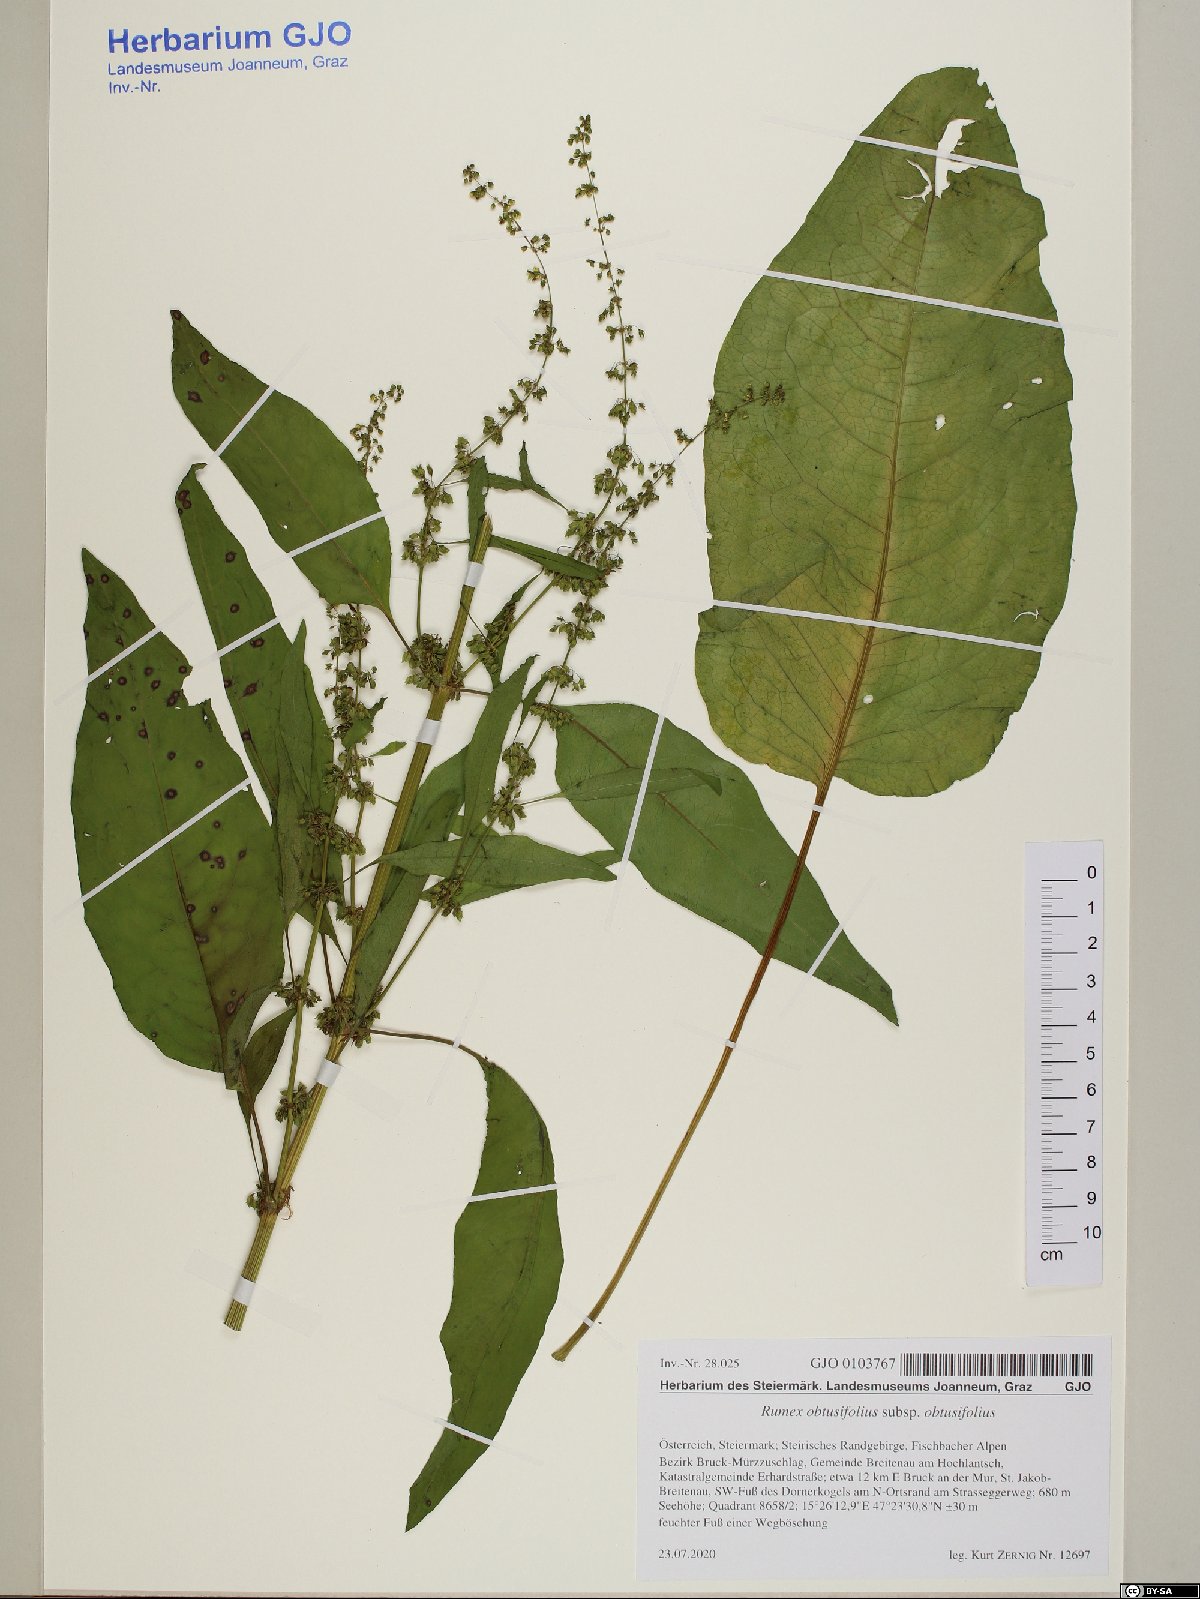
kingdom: Plantae
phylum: Tracheophyta
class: Magnoliopsida
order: Caryophyllales
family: Polygonaceae
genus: Rumex
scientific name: Rumex obtusifolius
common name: Bitter dock
